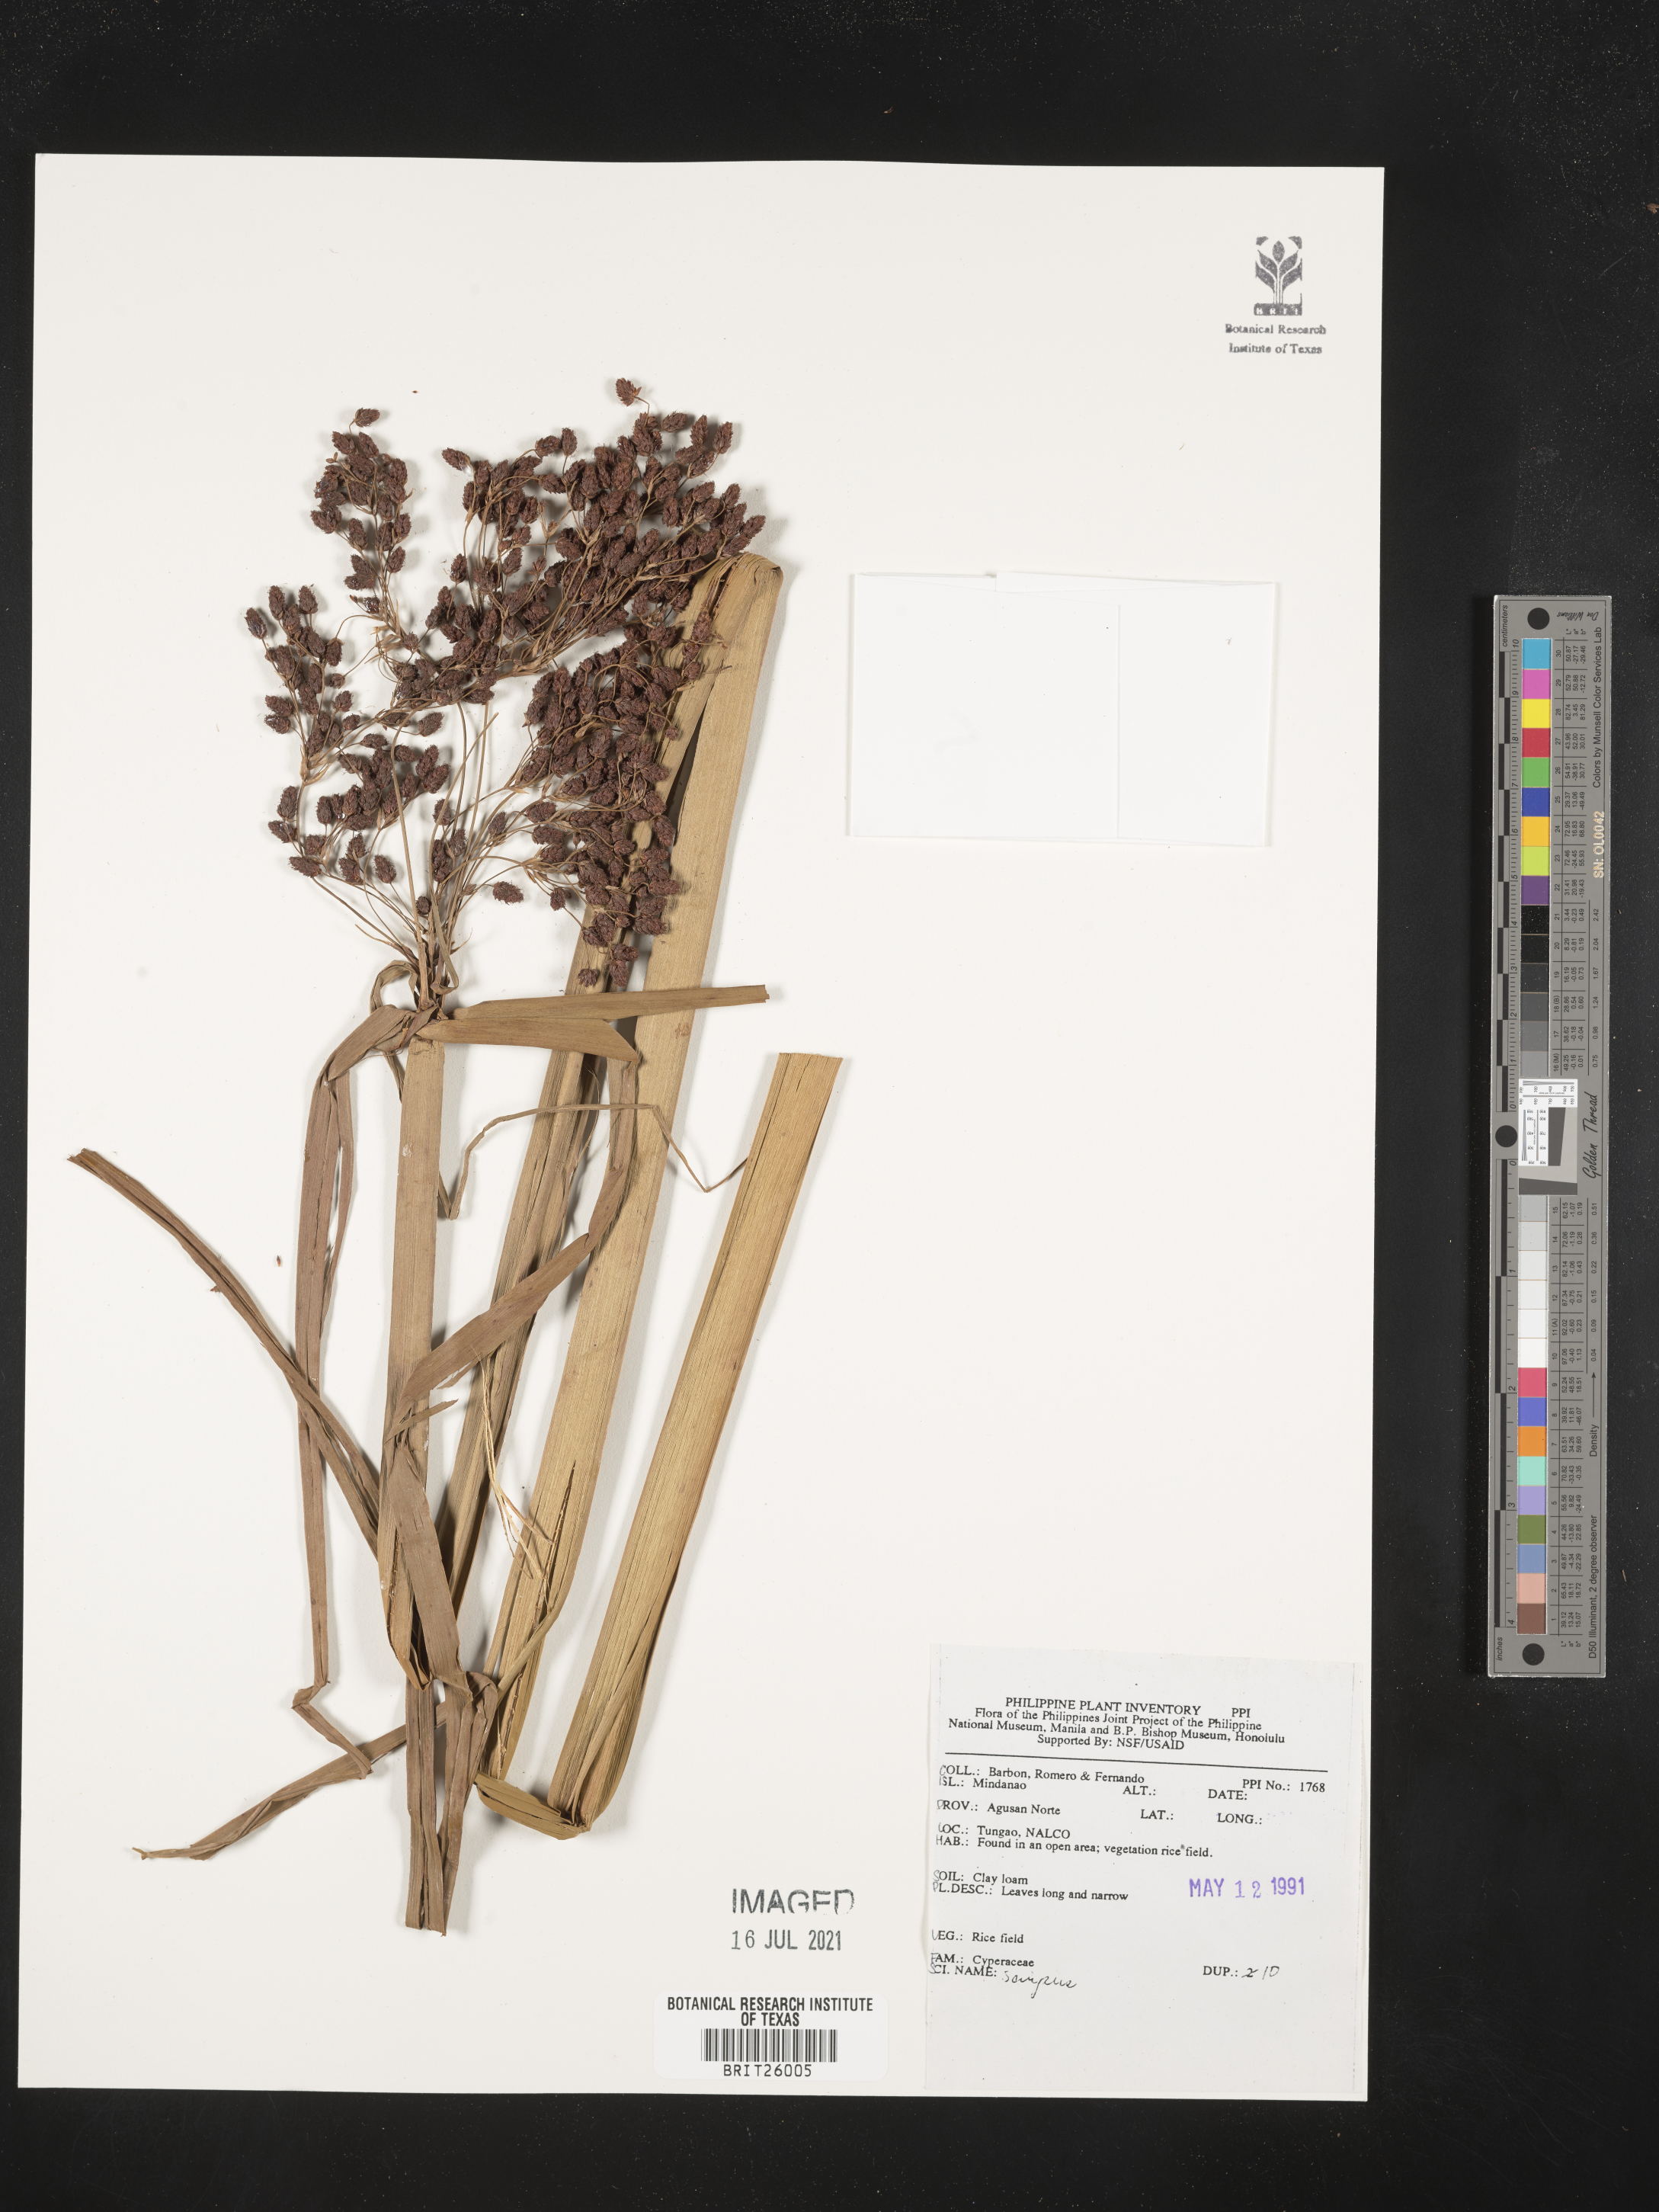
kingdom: Plantae
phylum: Tracheophyta
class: Liliopsida
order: Poales
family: Cyperaceae
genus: Scirpus
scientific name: Scirpus
